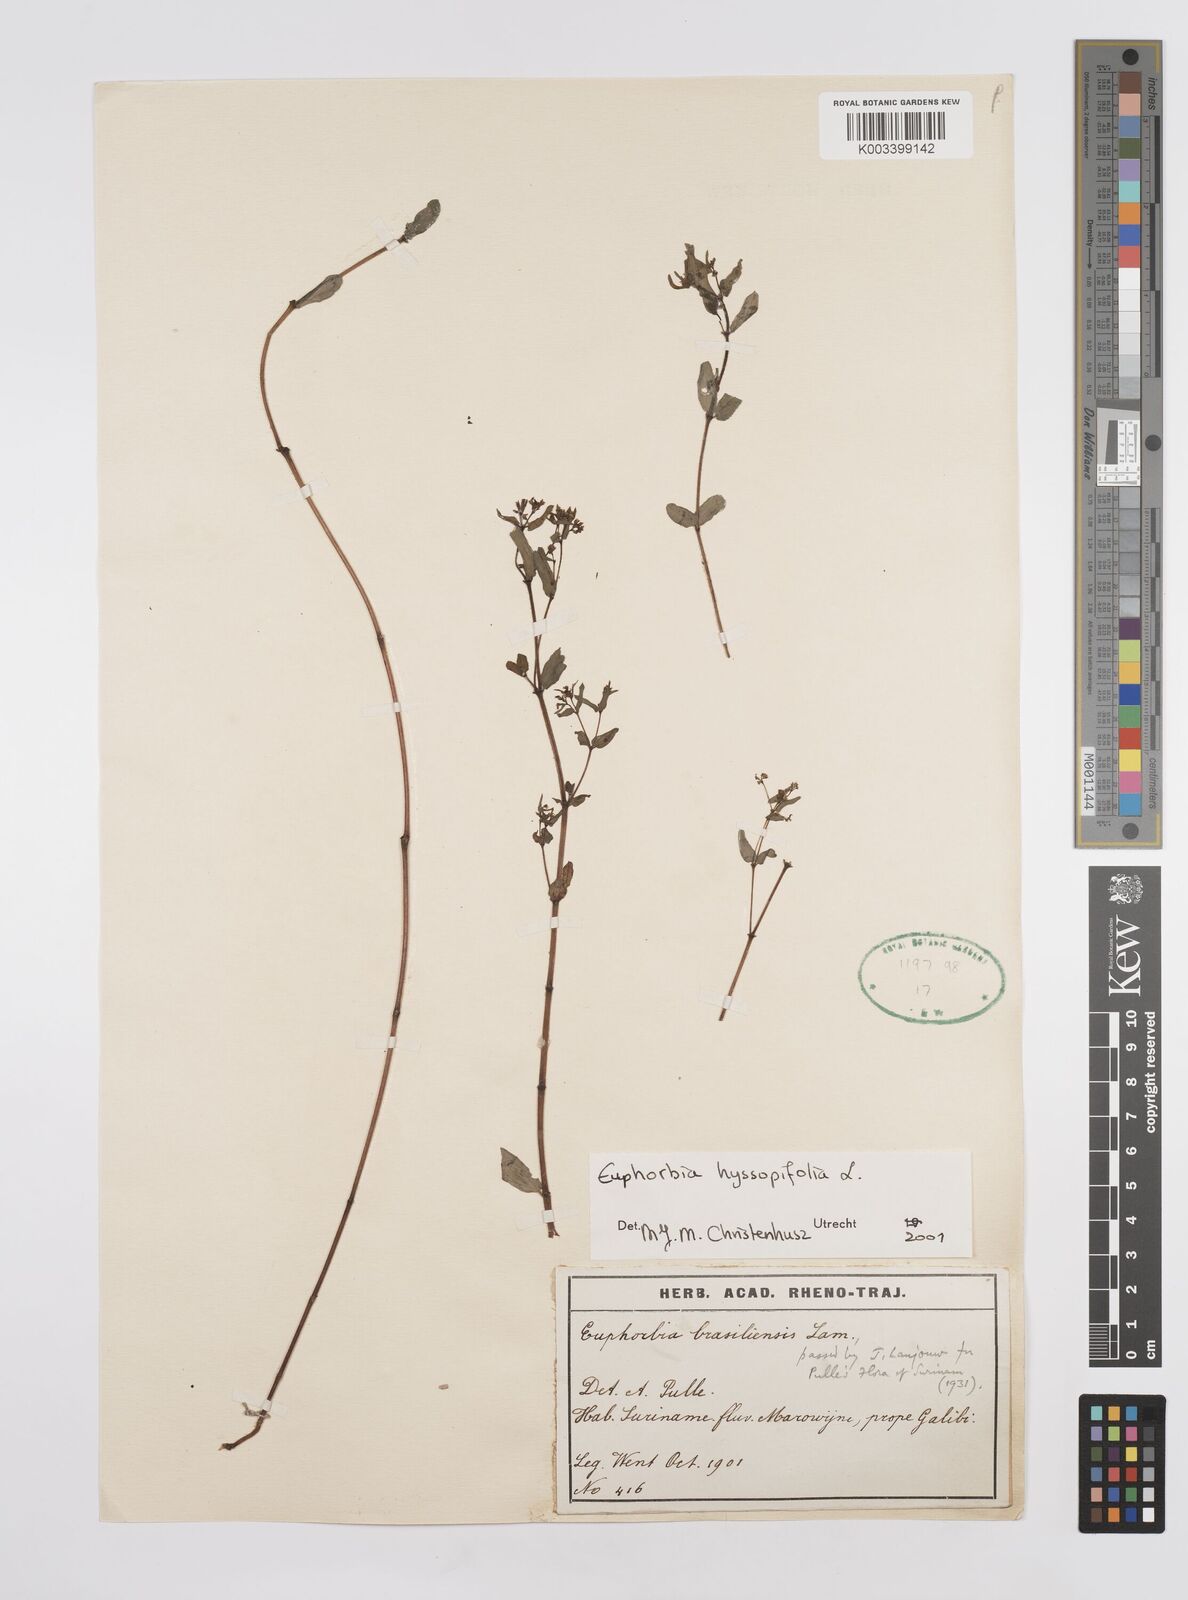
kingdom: Plantae
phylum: Tracheophyta
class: Magnoliopsida
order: Malpighiales
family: Euphorbiaceae
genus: Euphorbia
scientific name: Euphorbia hyssopifolia
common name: Hyssopleaf sandmat
